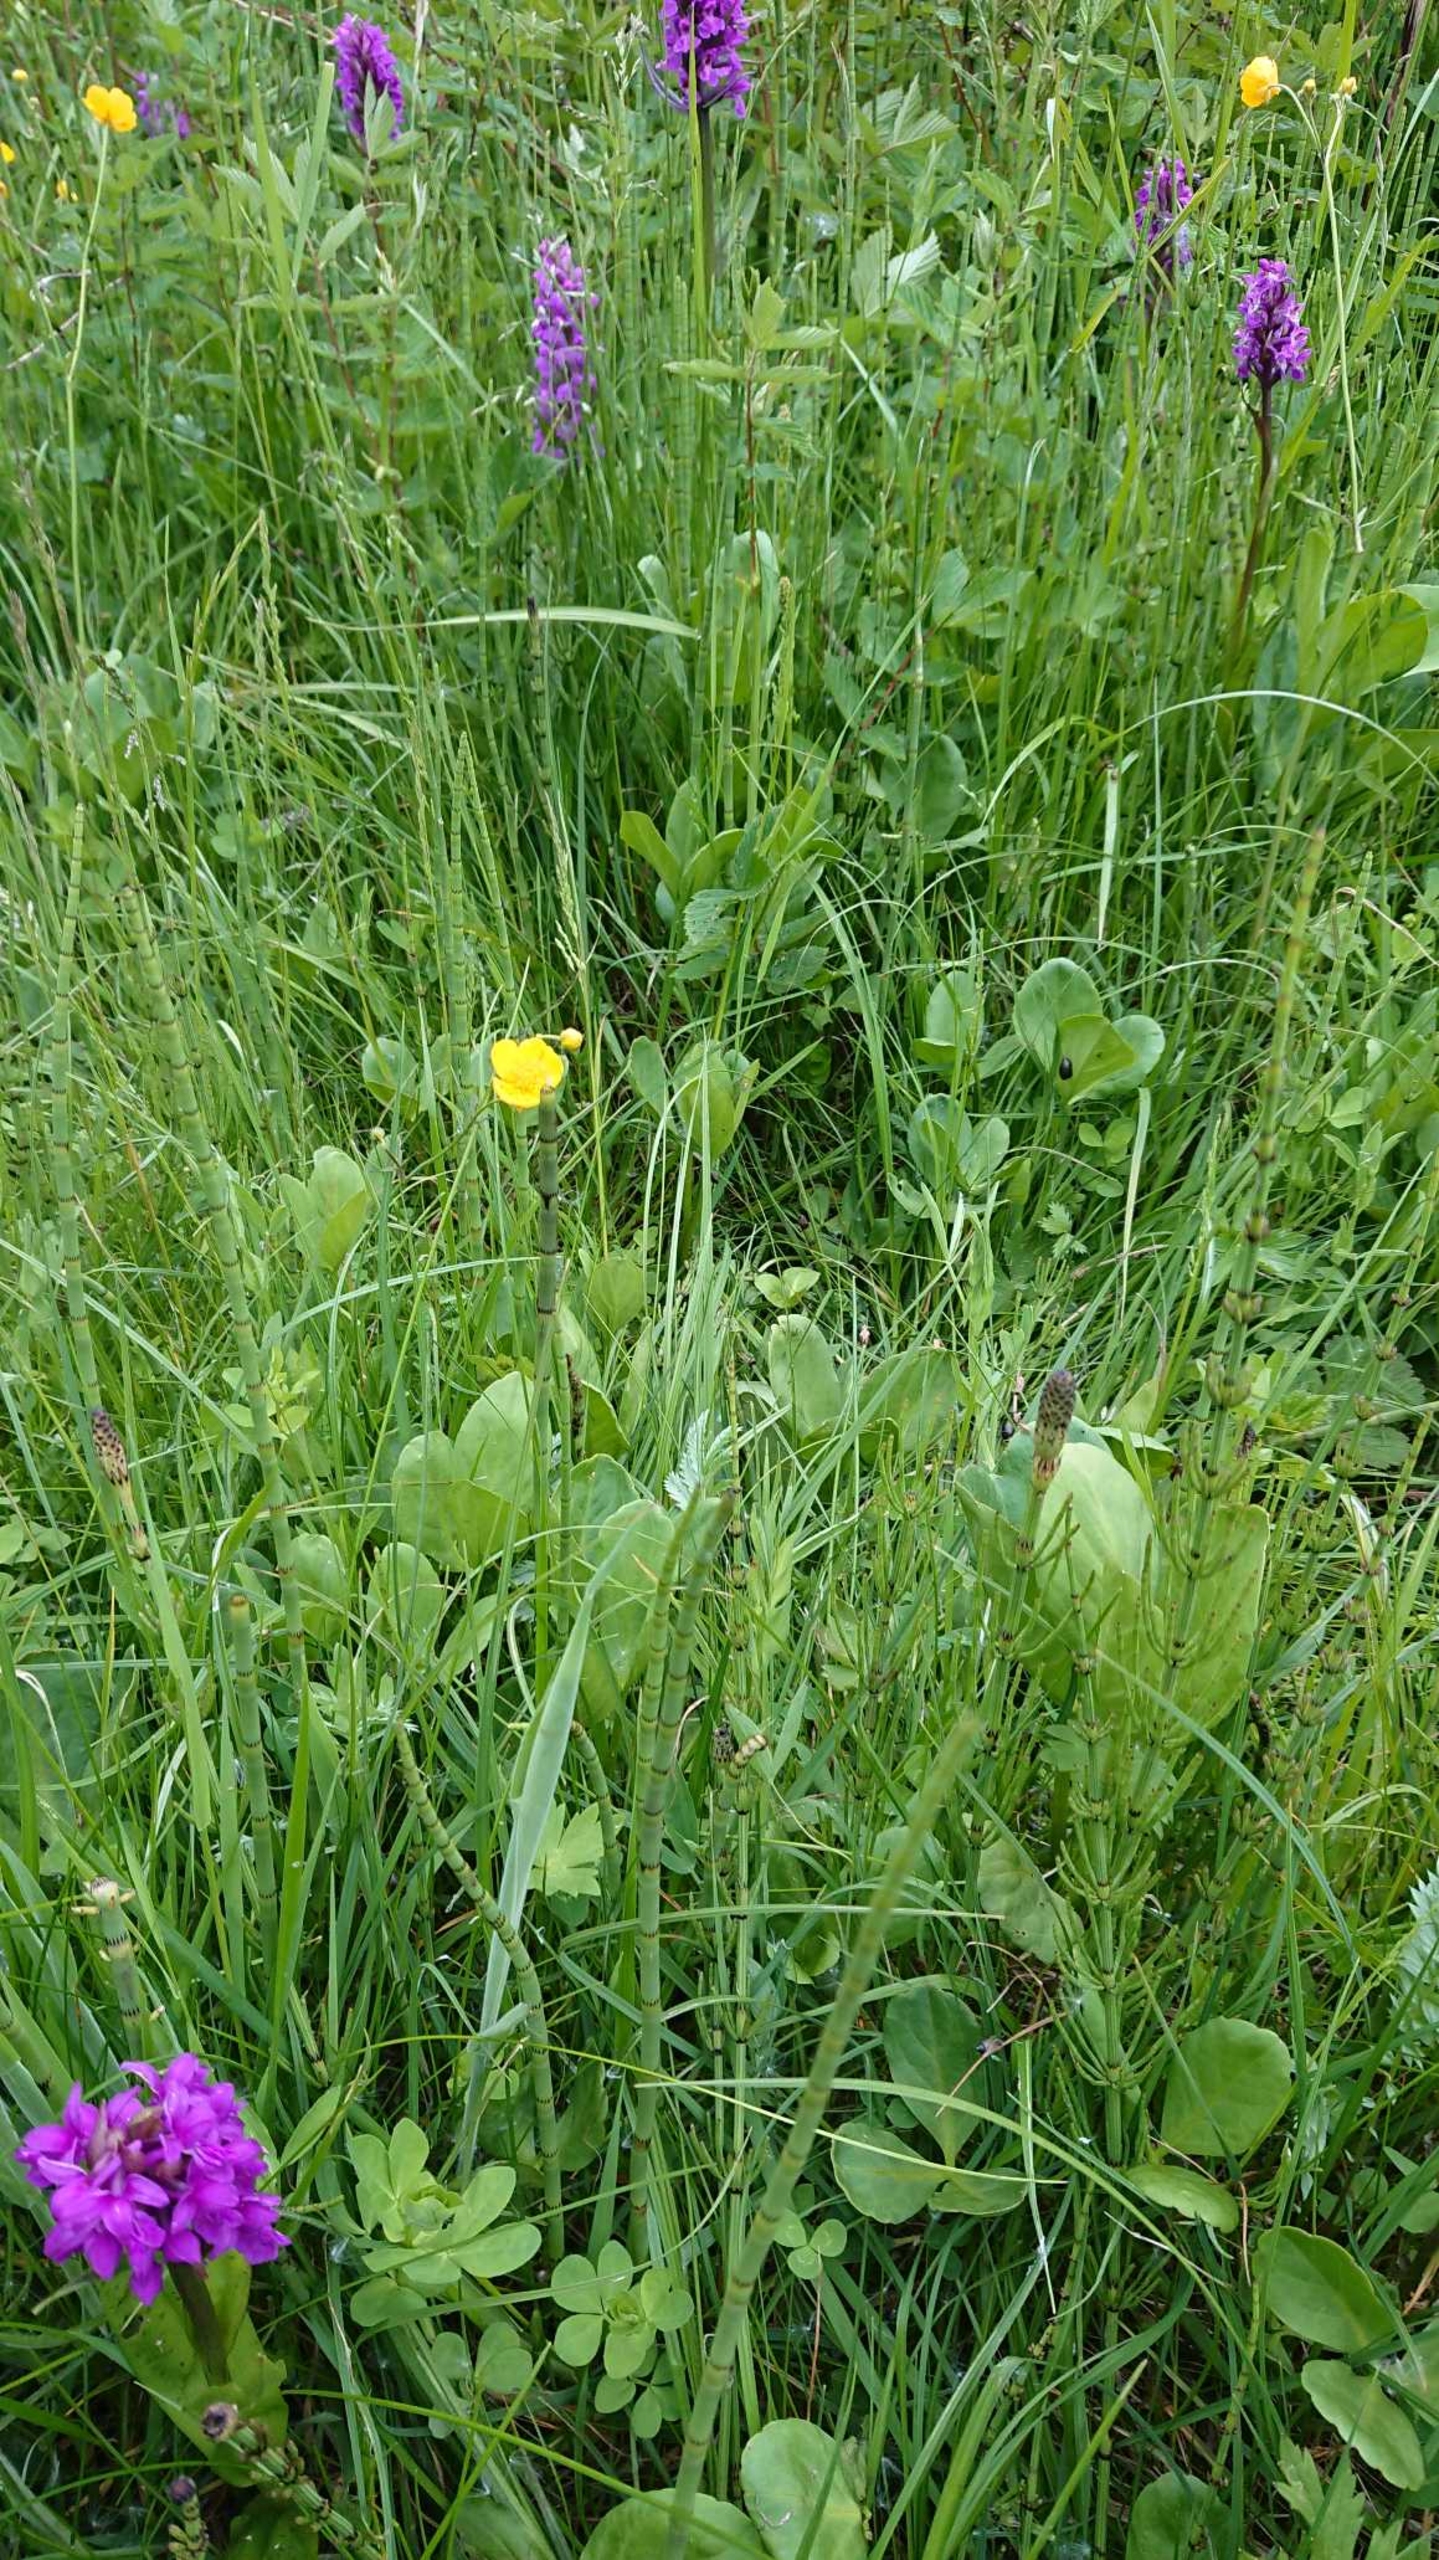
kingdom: Plantae
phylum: Tracheophyta
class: Magnoliopsida
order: Asterales
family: Menyanthaceae
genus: Menyanthes
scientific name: Menyanthes trifoliata
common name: Bukkeblad
